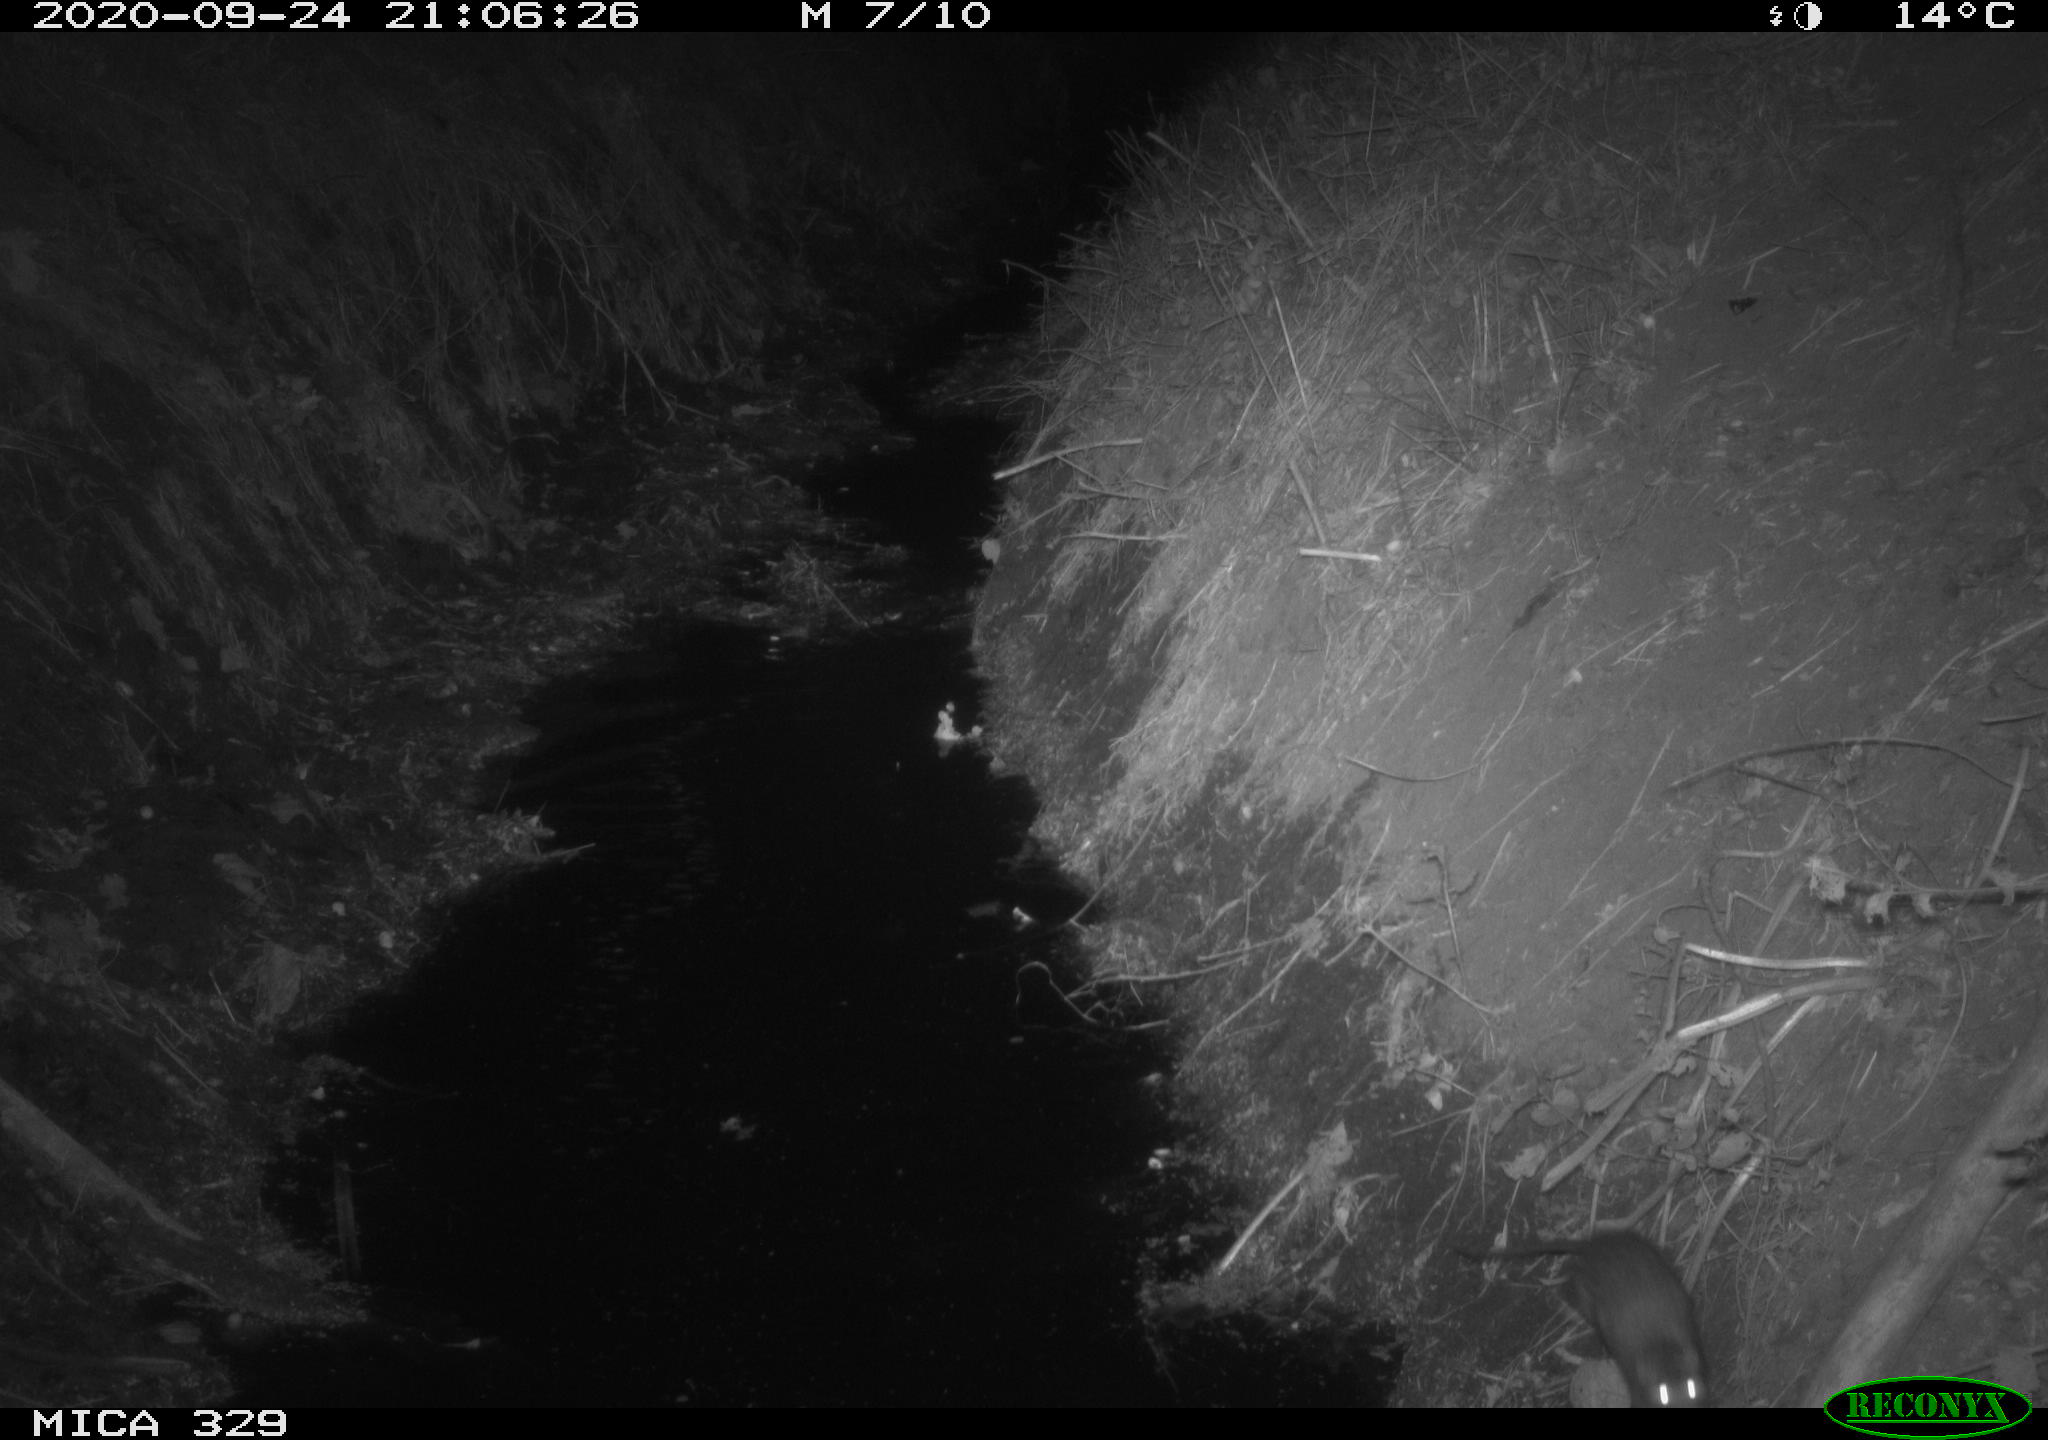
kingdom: Animalia
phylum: Chordata
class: Mammalia
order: Rodentia
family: Muridae
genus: Rattus
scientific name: Rattus norvegicus
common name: Brown rat
